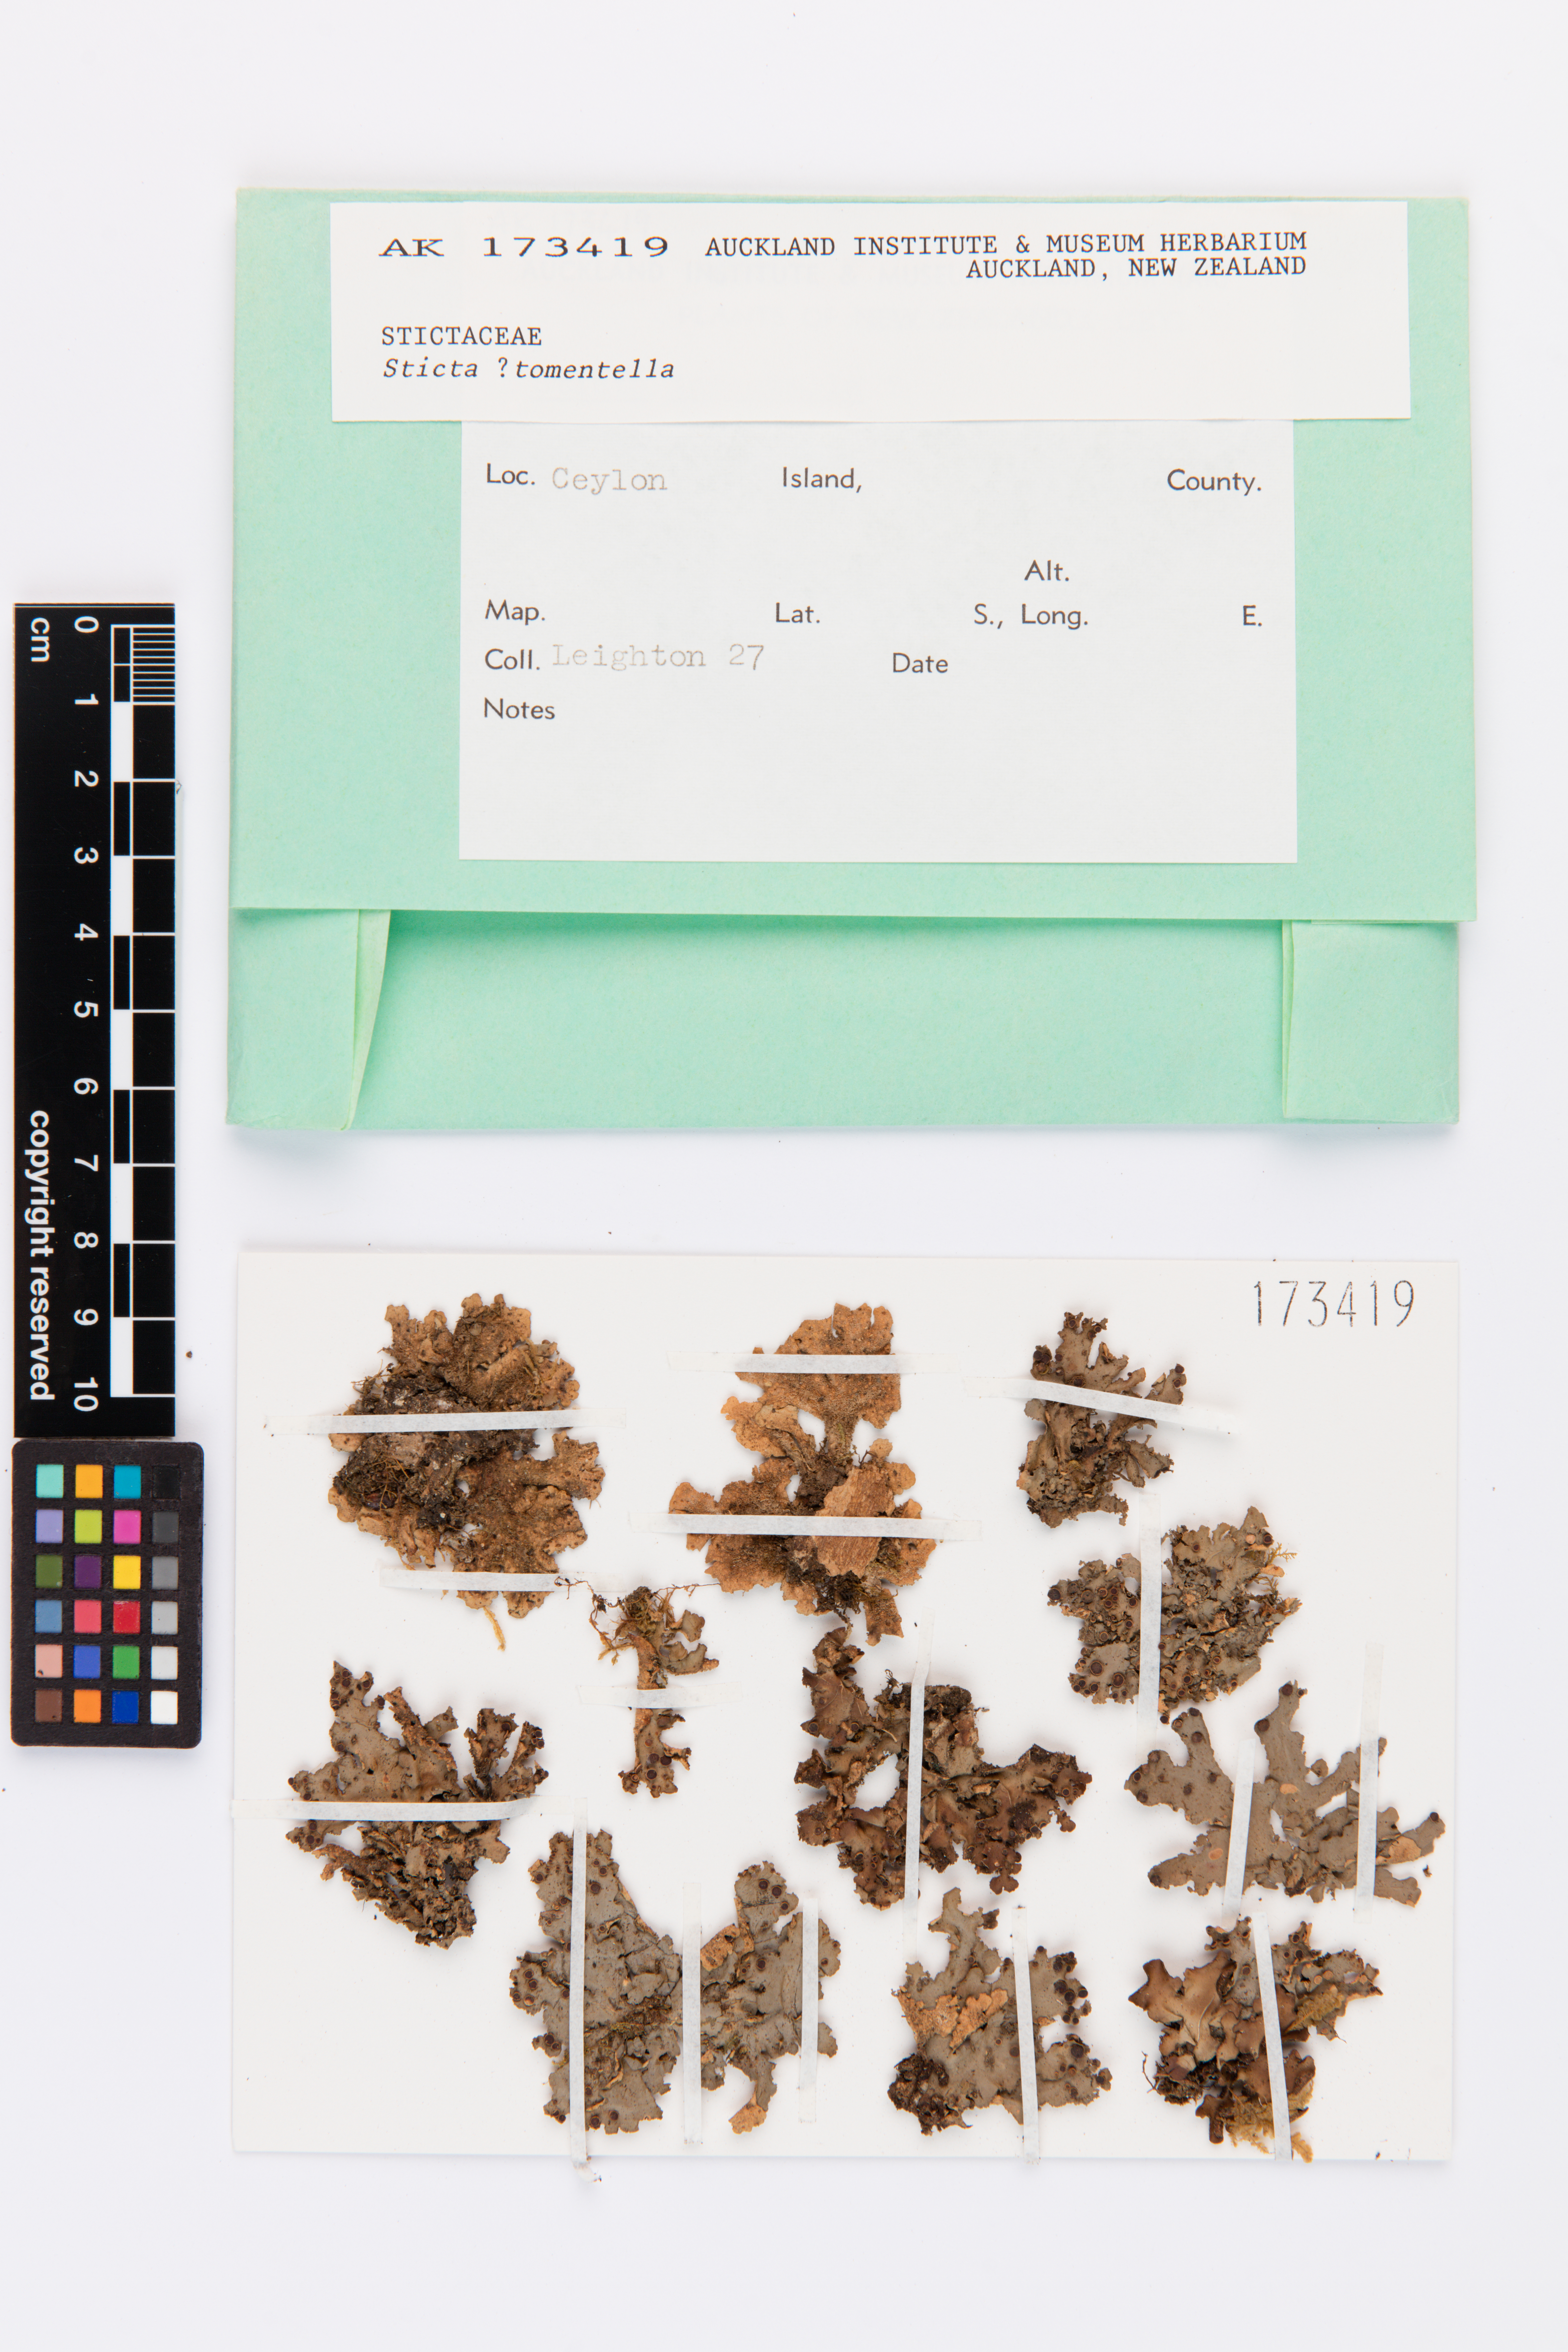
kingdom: Fungi
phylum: Ascomycota
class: Lecanoromycetes
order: Peltigerales
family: Lobariaceae
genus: Sticta
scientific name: Sticta tomentella
